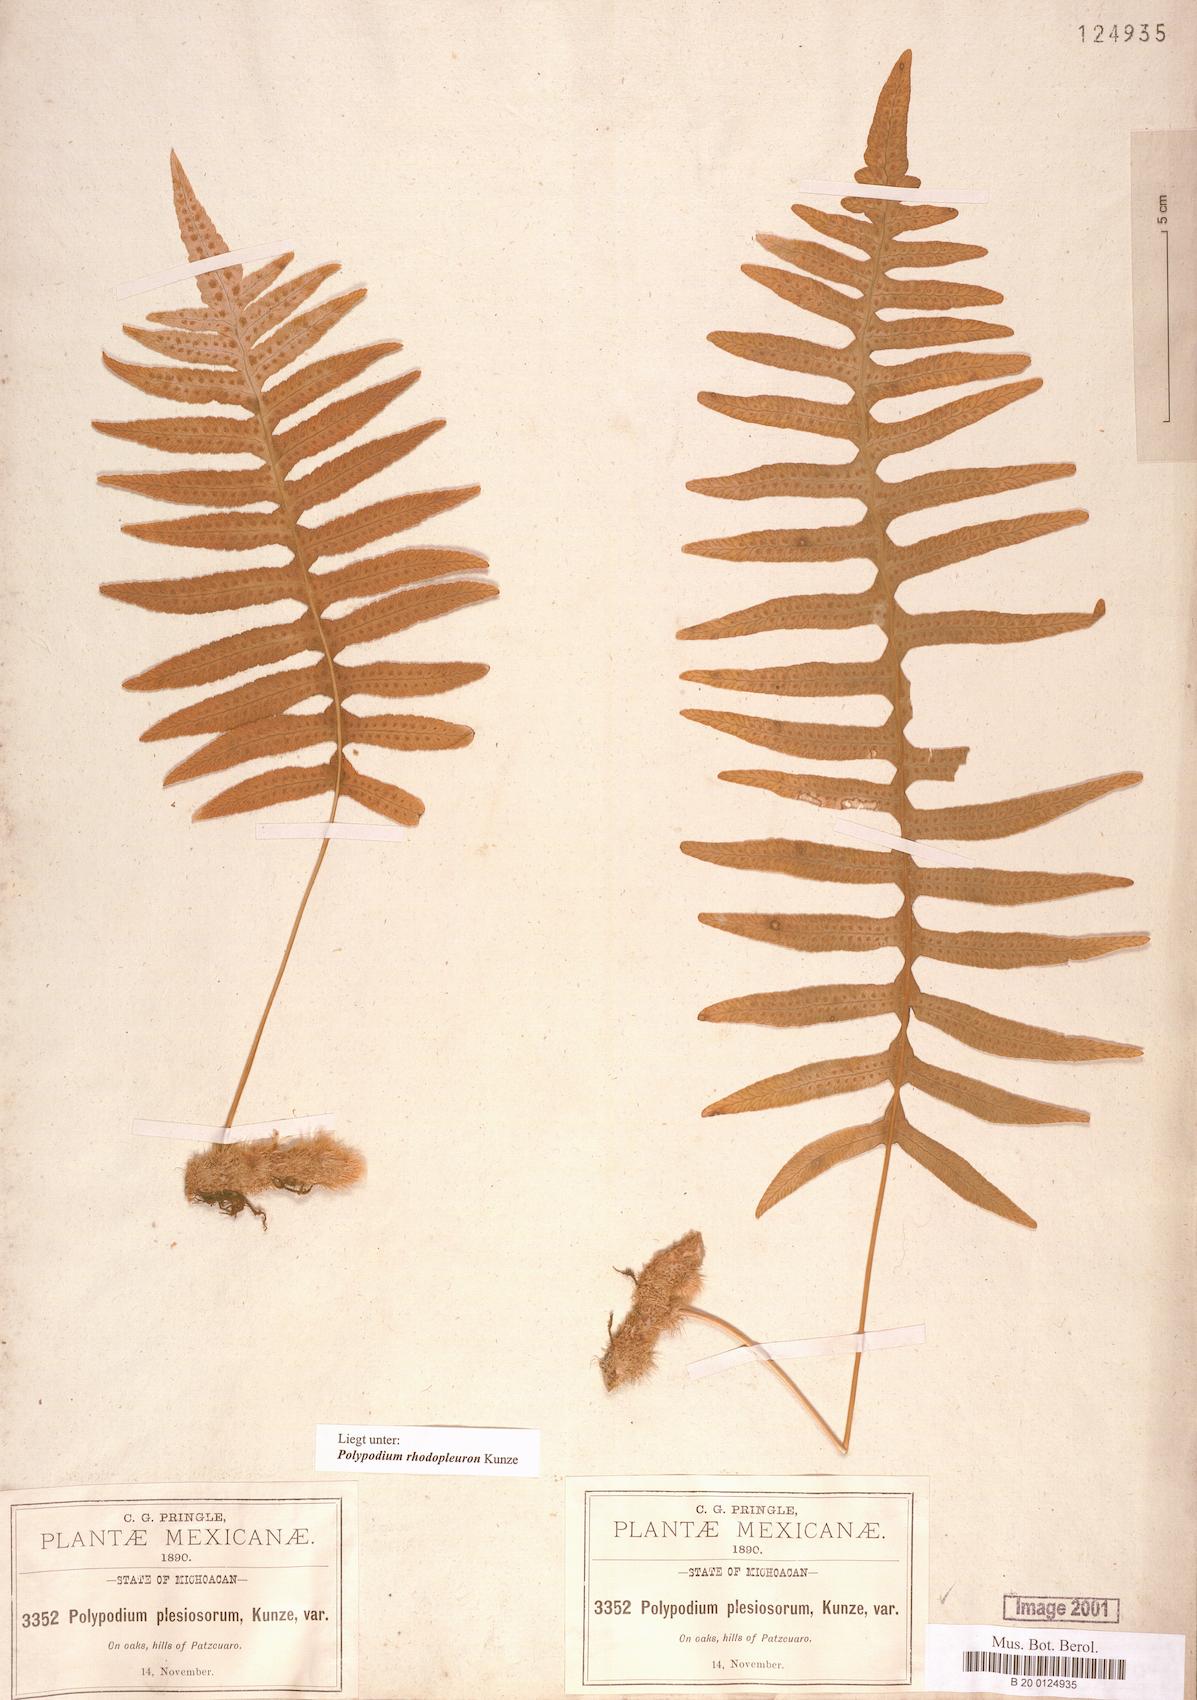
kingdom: Plantae
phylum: Tracheophyta
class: Polypodiopsida
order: Polypodiales
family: Polypodiaceae
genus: Polypodium
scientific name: Polypodium arcanum
